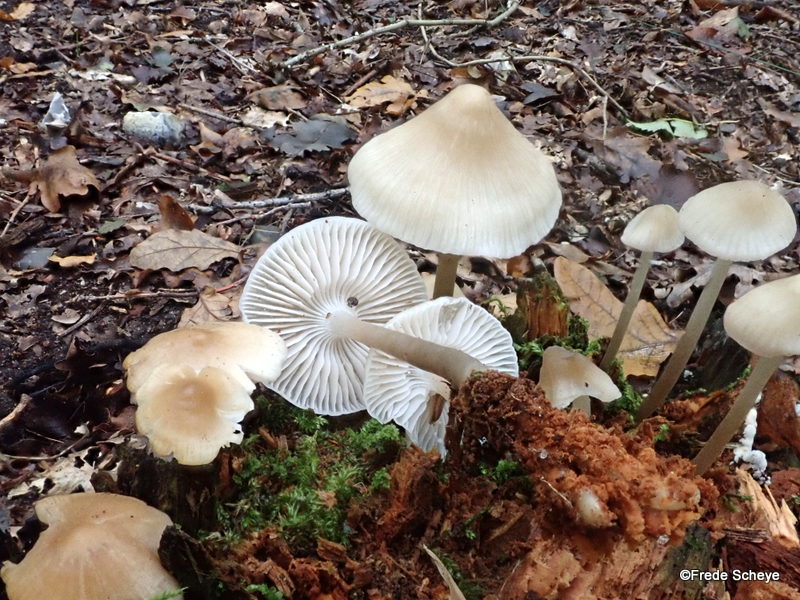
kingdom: Fungi
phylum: Basidiomycota
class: Agaricomycetes
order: Agaricales
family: Mycenaceae
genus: Mycena
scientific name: Mycena galericulata
